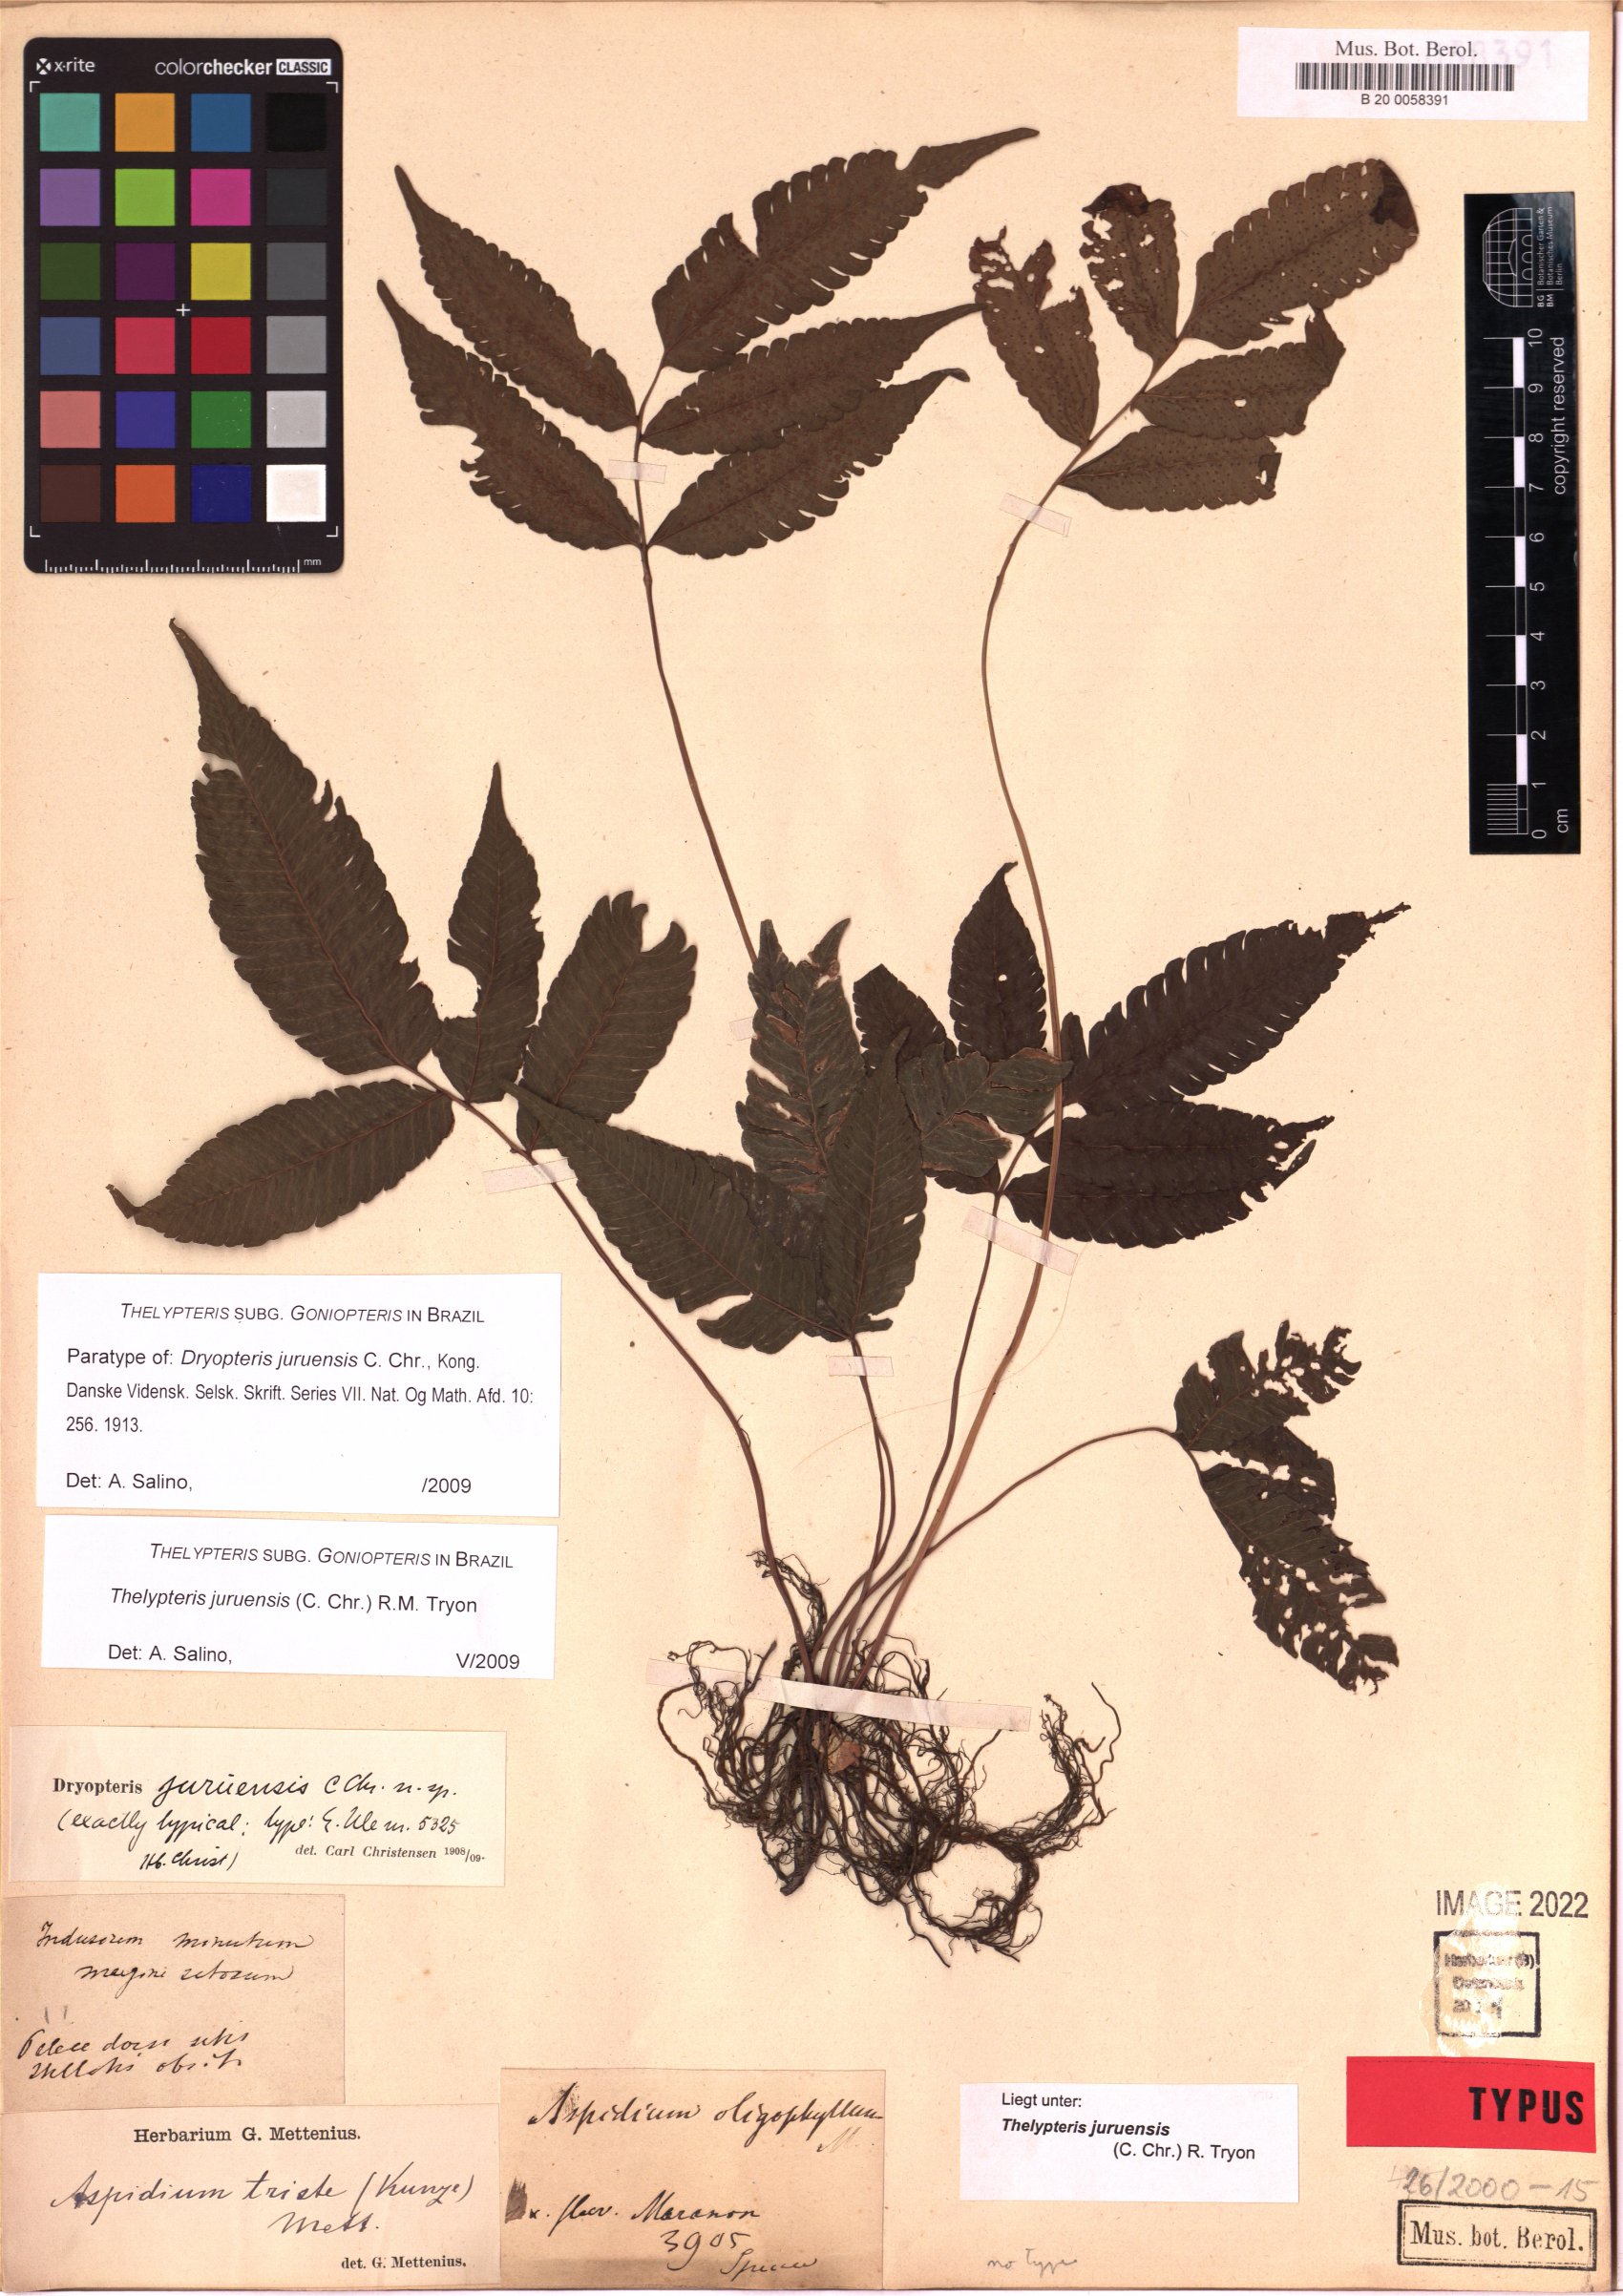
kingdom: Plantae
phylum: Tracheophyta
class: Polypodiopsida
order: Polypodiales
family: Thelypteridaceae
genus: Goniopteris
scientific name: Goniopteris juruensis
